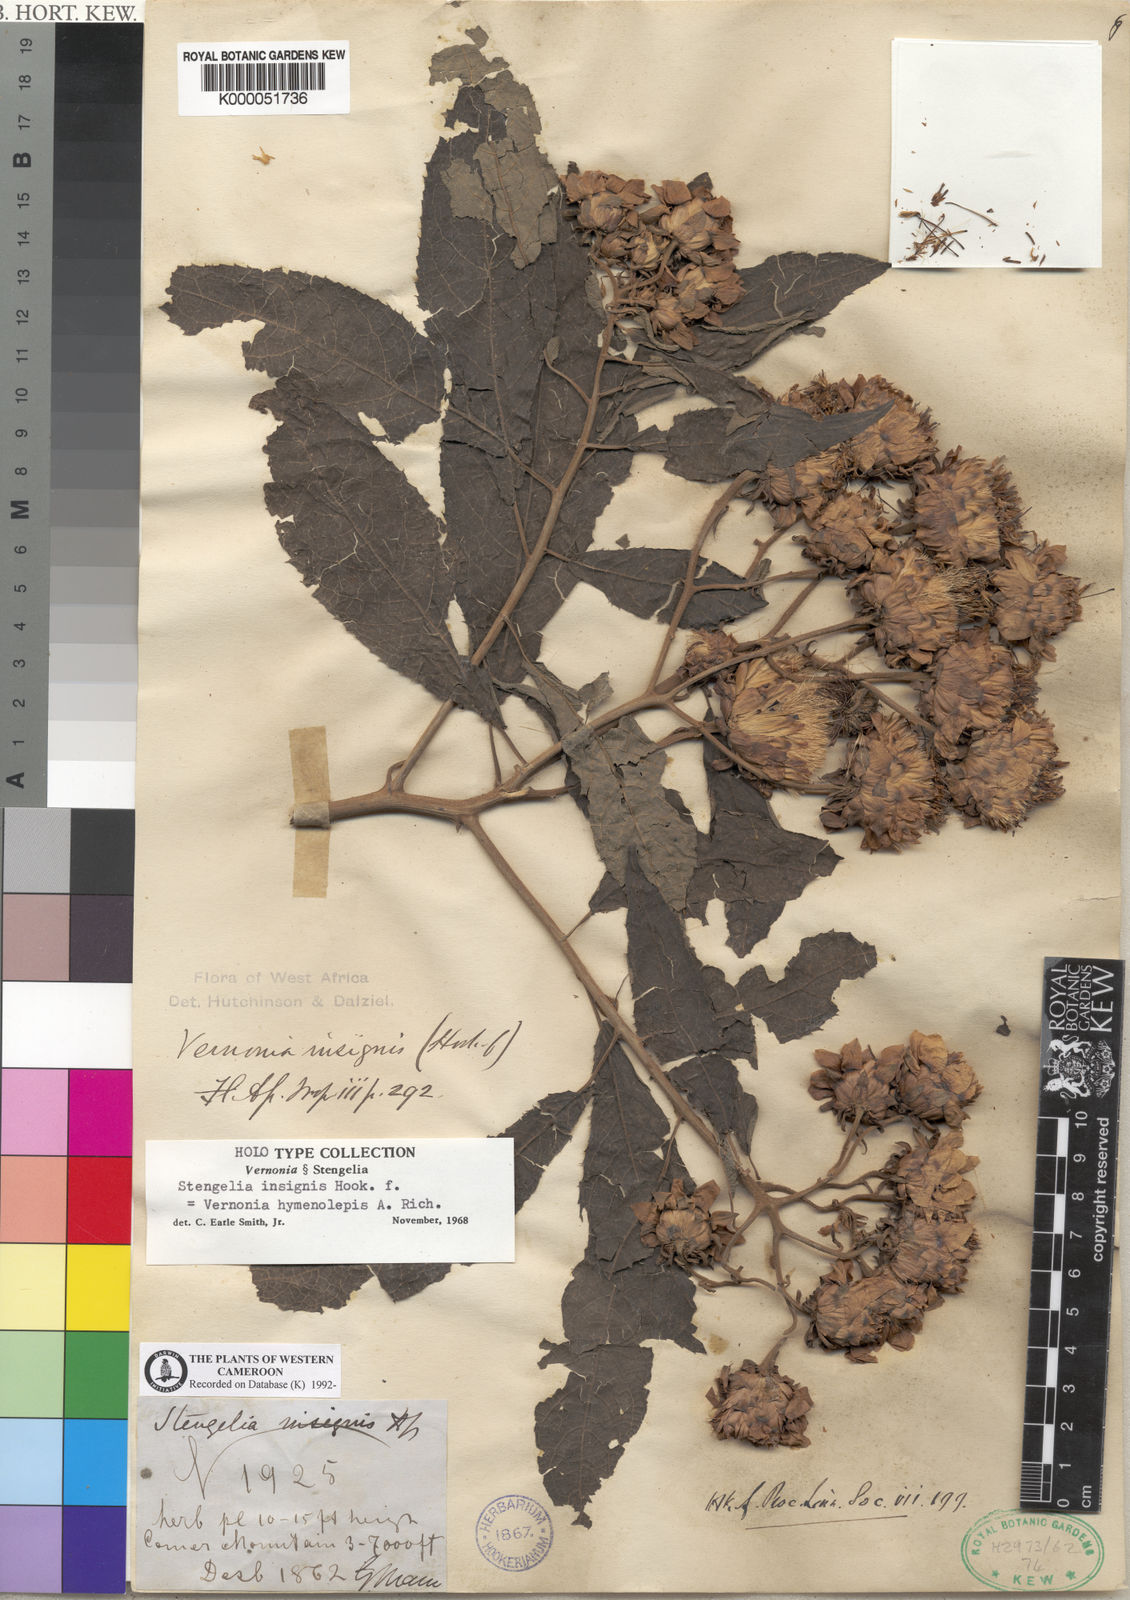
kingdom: Plantae
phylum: Tracheophyta
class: Magnoliopsida
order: Asterales
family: Asteraceae
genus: Baccharoides
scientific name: Baccharoides hymenolepis
